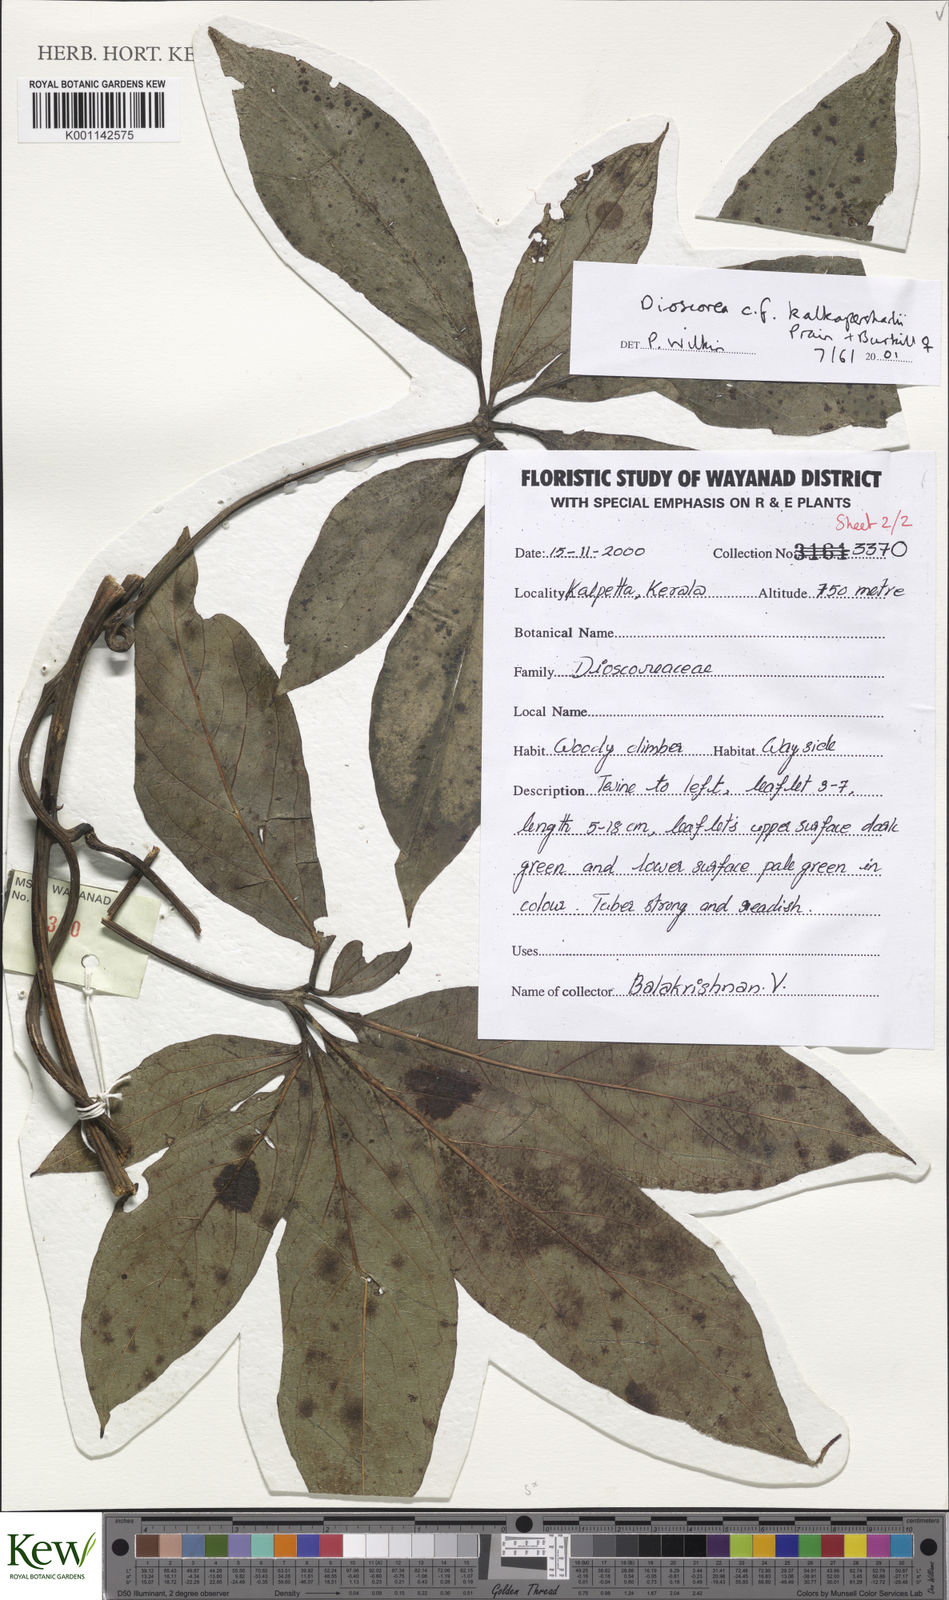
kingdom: Plantae
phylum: Tracheophyta
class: Liliopsida
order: Dioscoreales
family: Dioscoreaceae
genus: Dioscorea
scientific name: Dioscorea kalkapershadii
